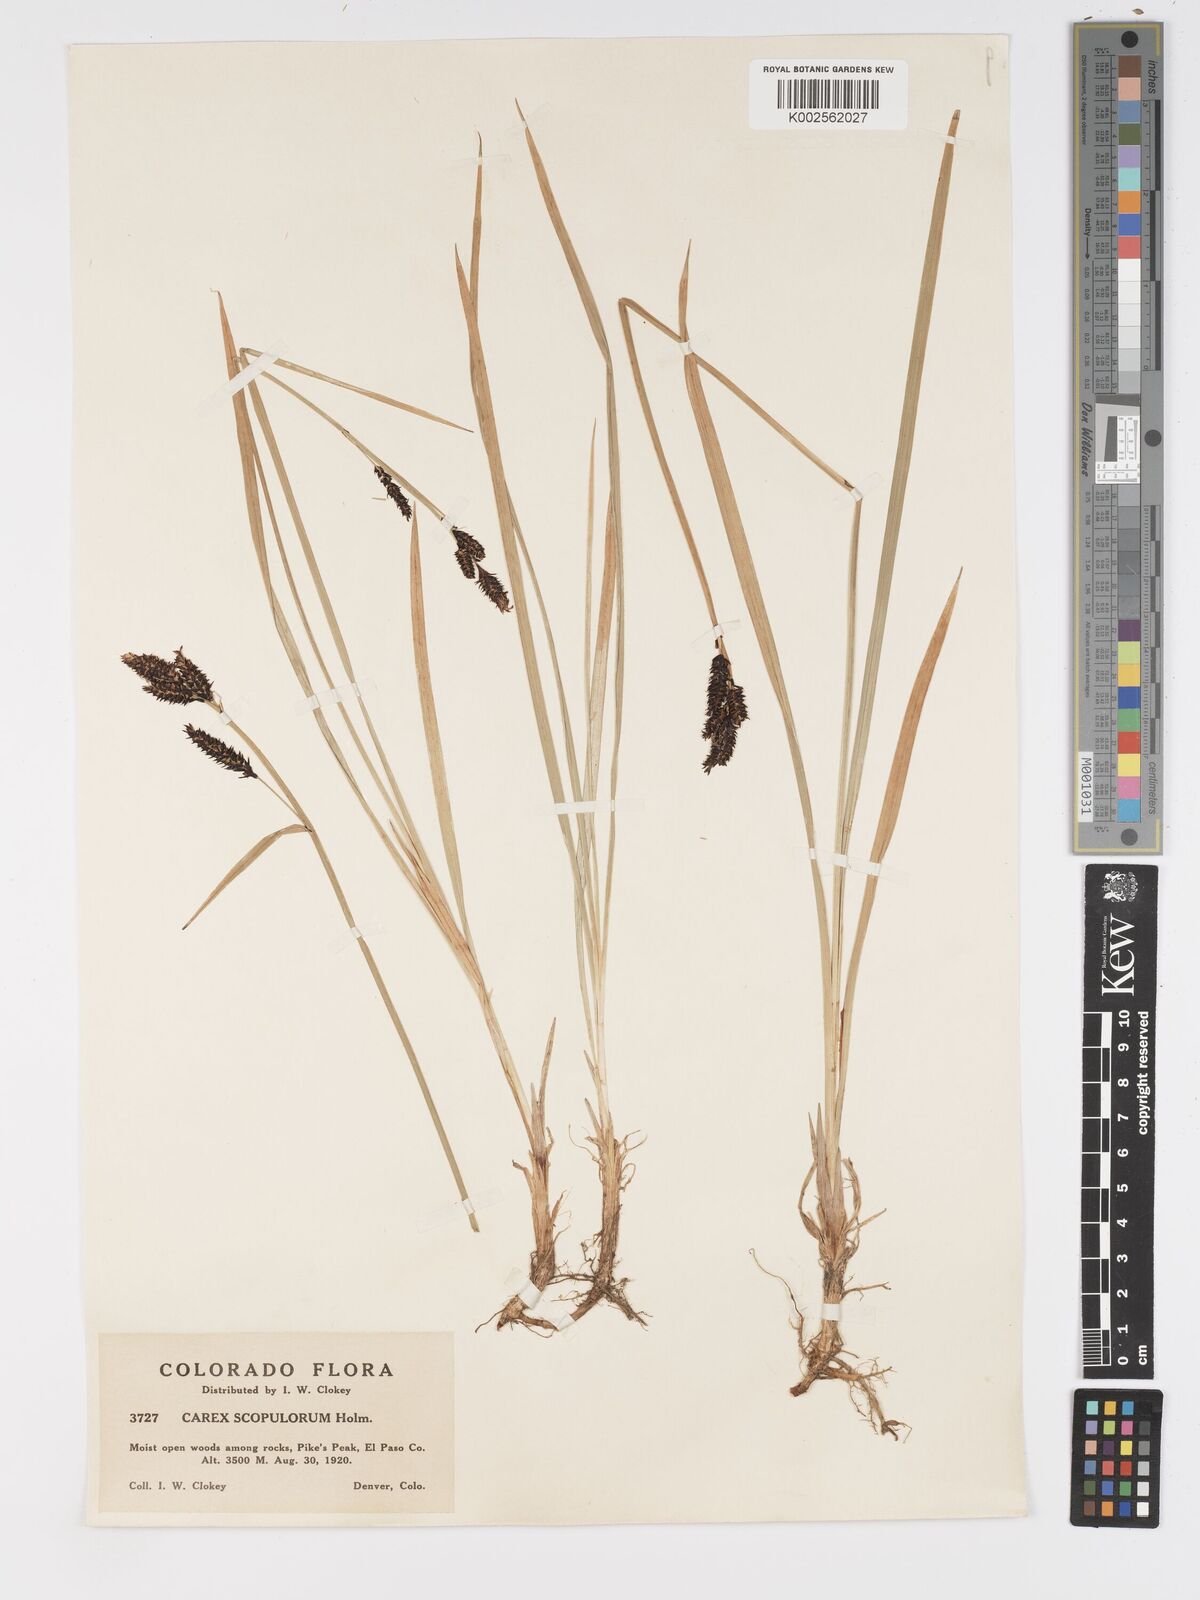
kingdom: Plantae
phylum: Tracheophyta
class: Liliopsida
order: Poales
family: Cyperaceae
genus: Carex
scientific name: Carex scopulorum
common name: Holm's rocky mountain sedge
